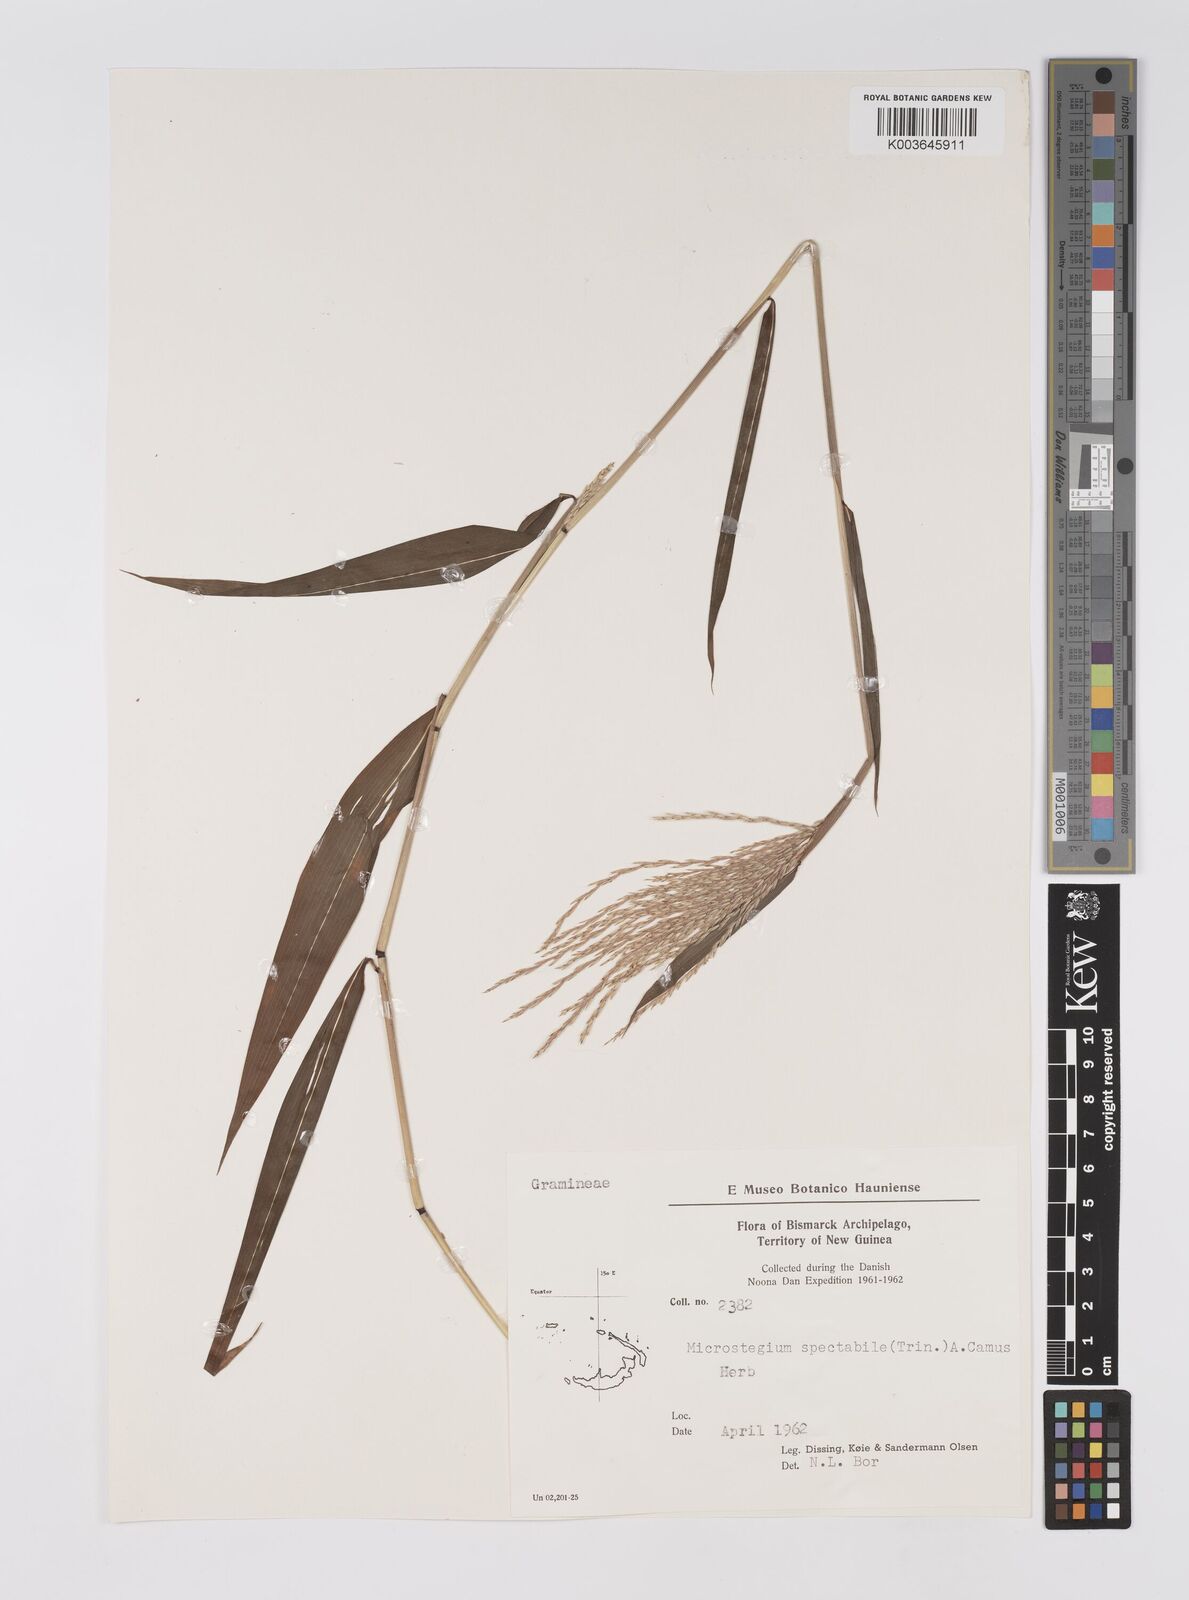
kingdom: Plantae
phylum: Tracheophyta
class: Liliopsida
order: Poales
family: Poaceae
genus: Microstegium
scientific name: Microstegium spectabile
